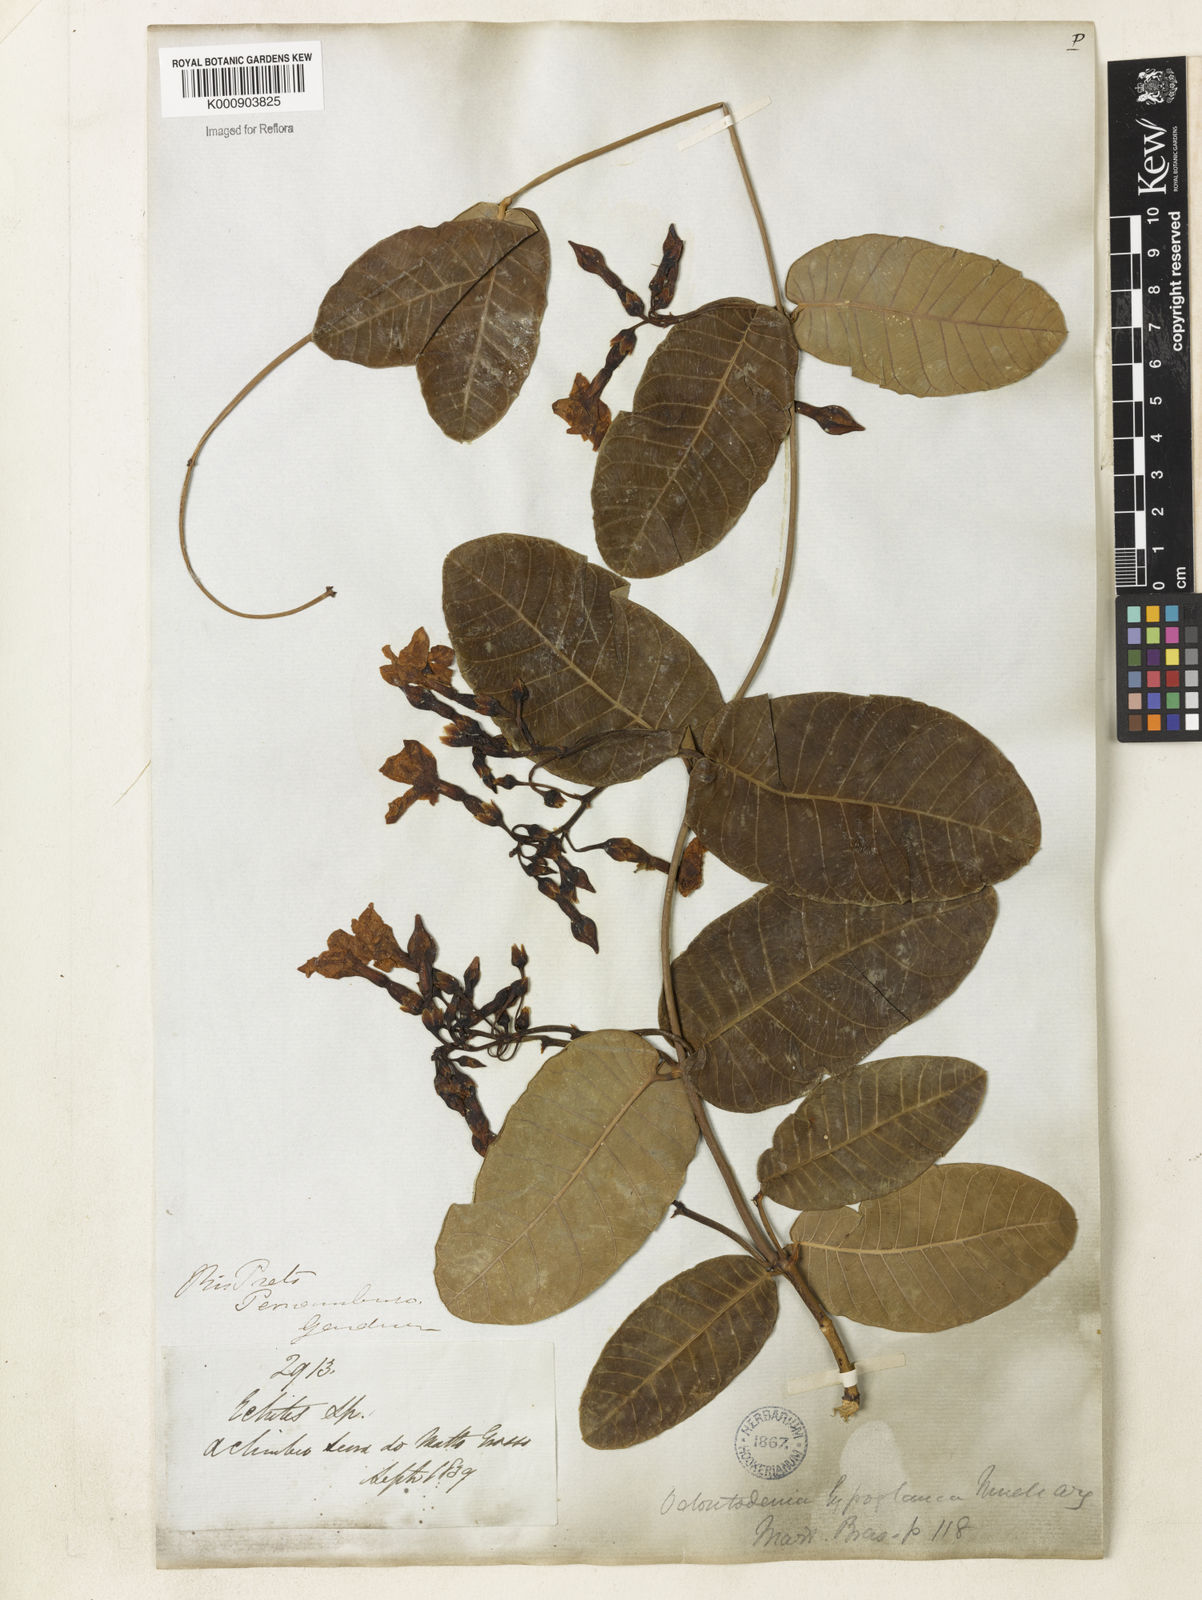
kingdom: Plantae
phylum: Tracheophyta
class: Magnoliopsida
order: Gentianales
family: Apocynaceae
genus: Odontadenia
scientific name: Odontadenia
